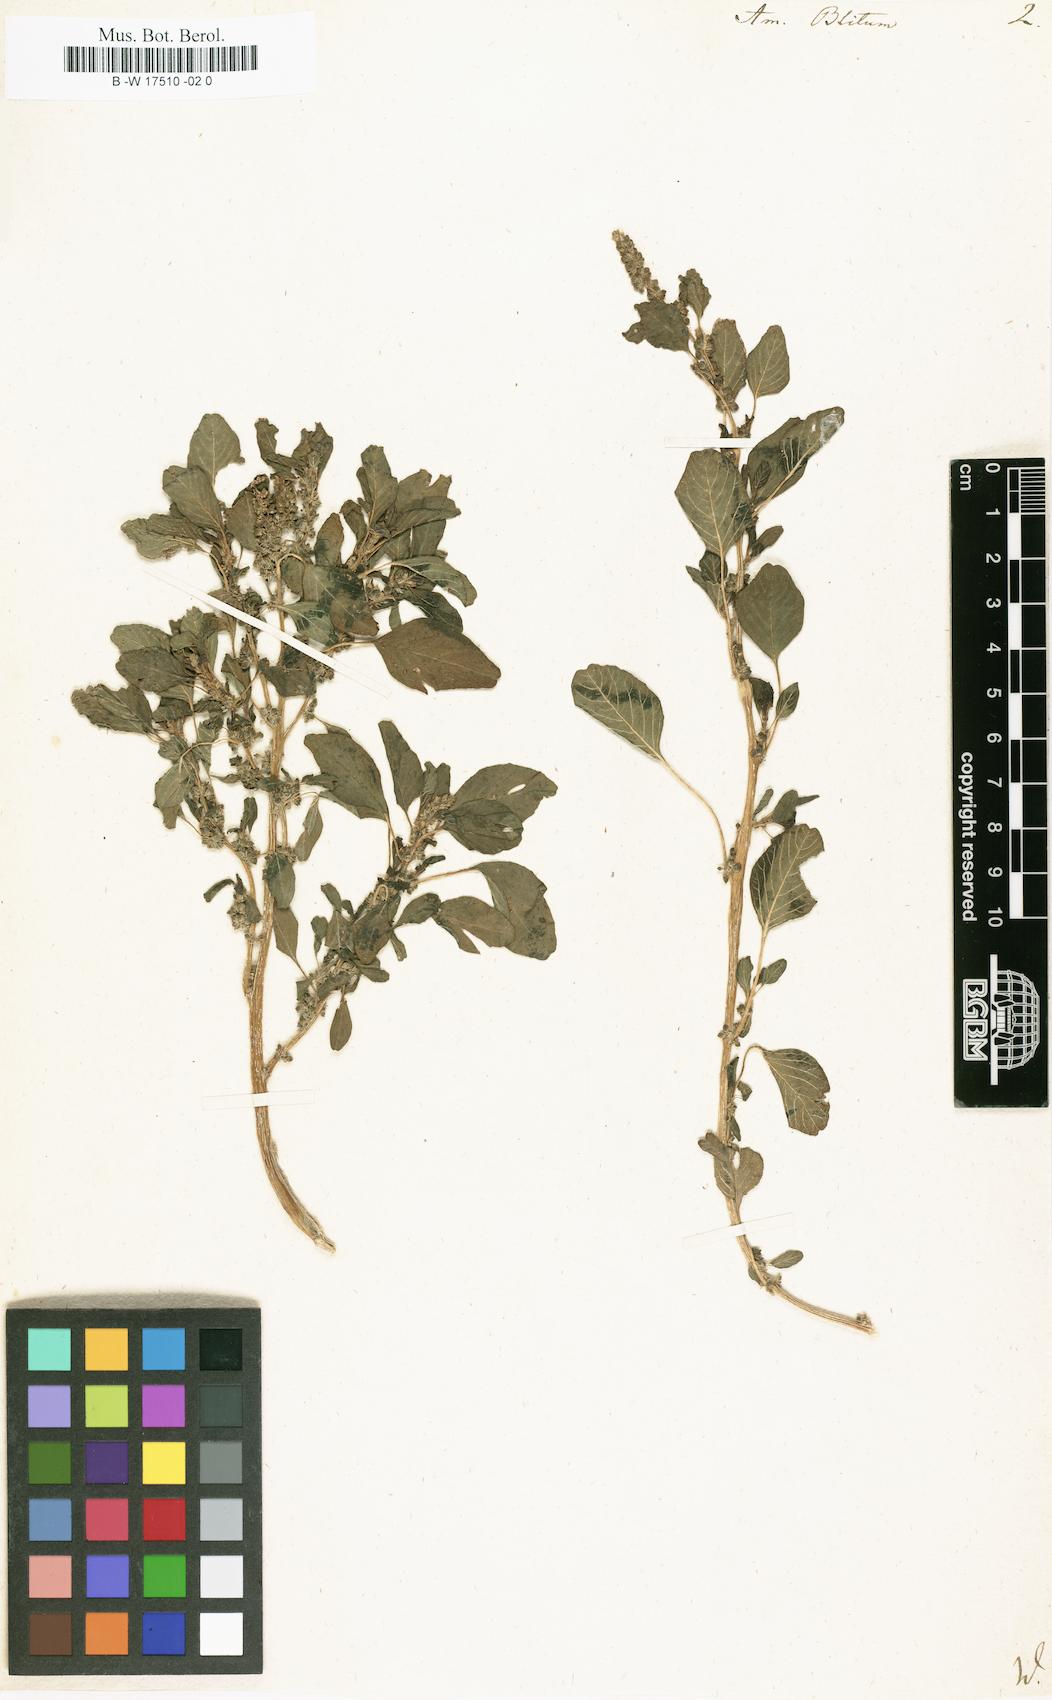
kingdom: Plantae
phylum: Tracheophyta
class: Magnoliopsida
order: Caryophyllales
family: Amaranthaceae
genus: Amaranthus
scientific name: Amaranthus blitum
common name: Purple amaranth
